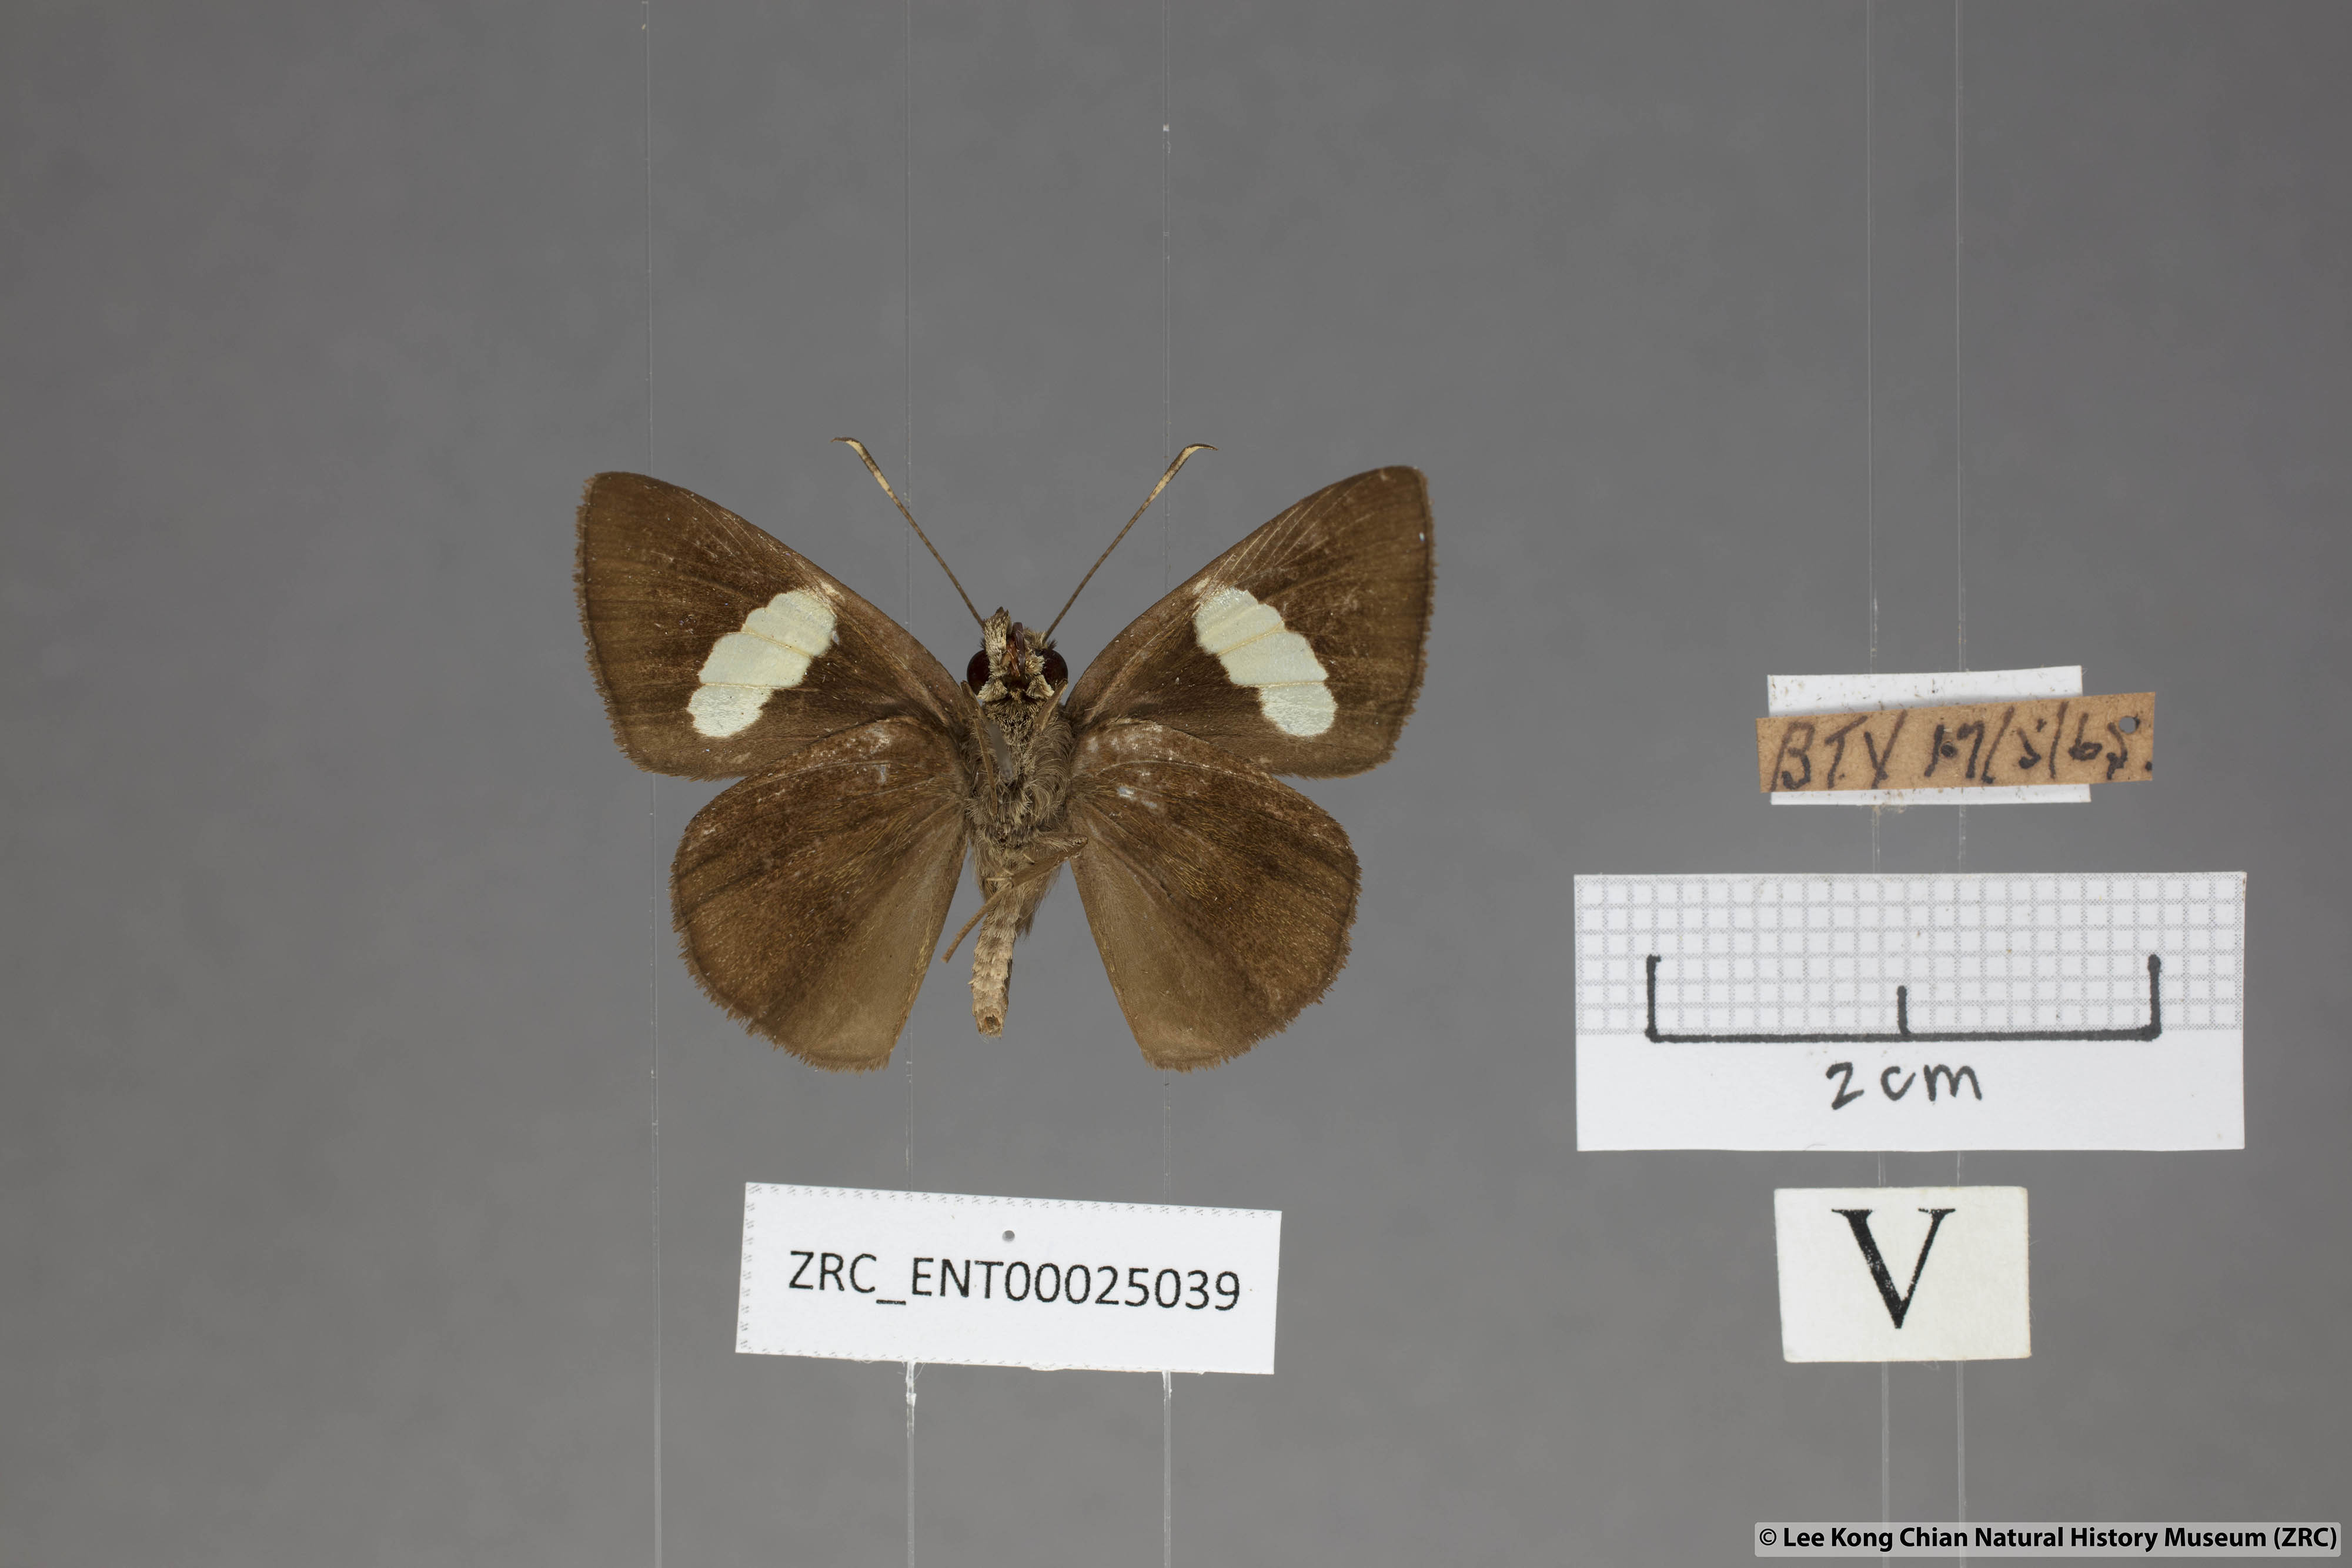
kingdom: Animalia
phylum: Arthropoda
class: Insecta
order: Lepidoptera
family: Hesperiidae
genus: Notocrypta
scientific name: Notocrypta paralysos
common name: Common banded demon
